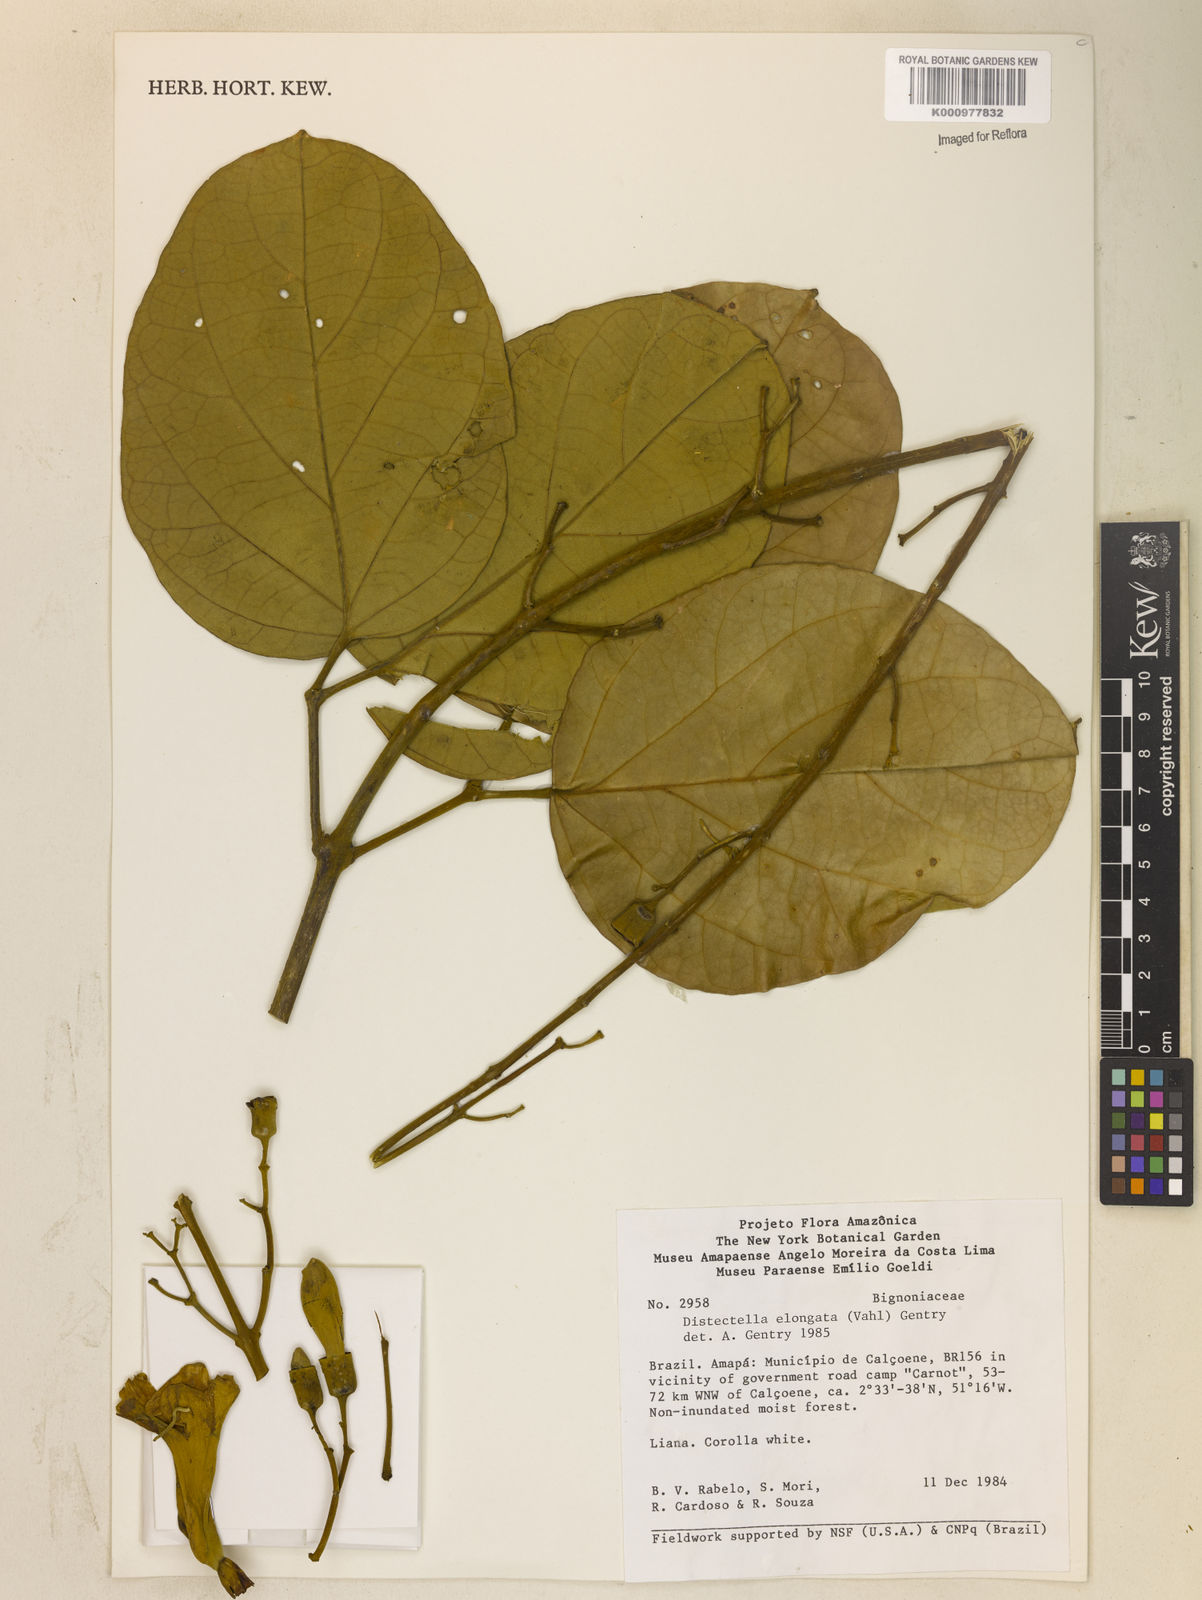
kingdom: Plantae
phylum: Tracheophyta
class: Magnoliopsida
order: Lamiales
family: Bignoniaceae
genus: Amphilophium
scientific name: Amphilophium elongatum
